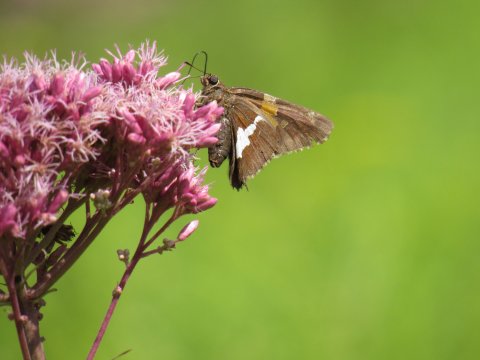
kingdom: Animalia
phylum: Arthropoda
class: Insecta
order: Lepidoptera
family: Hesperiidae
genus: Epargyreus
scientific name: Epargyreus clarus
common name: Silver-spotted Skipper
